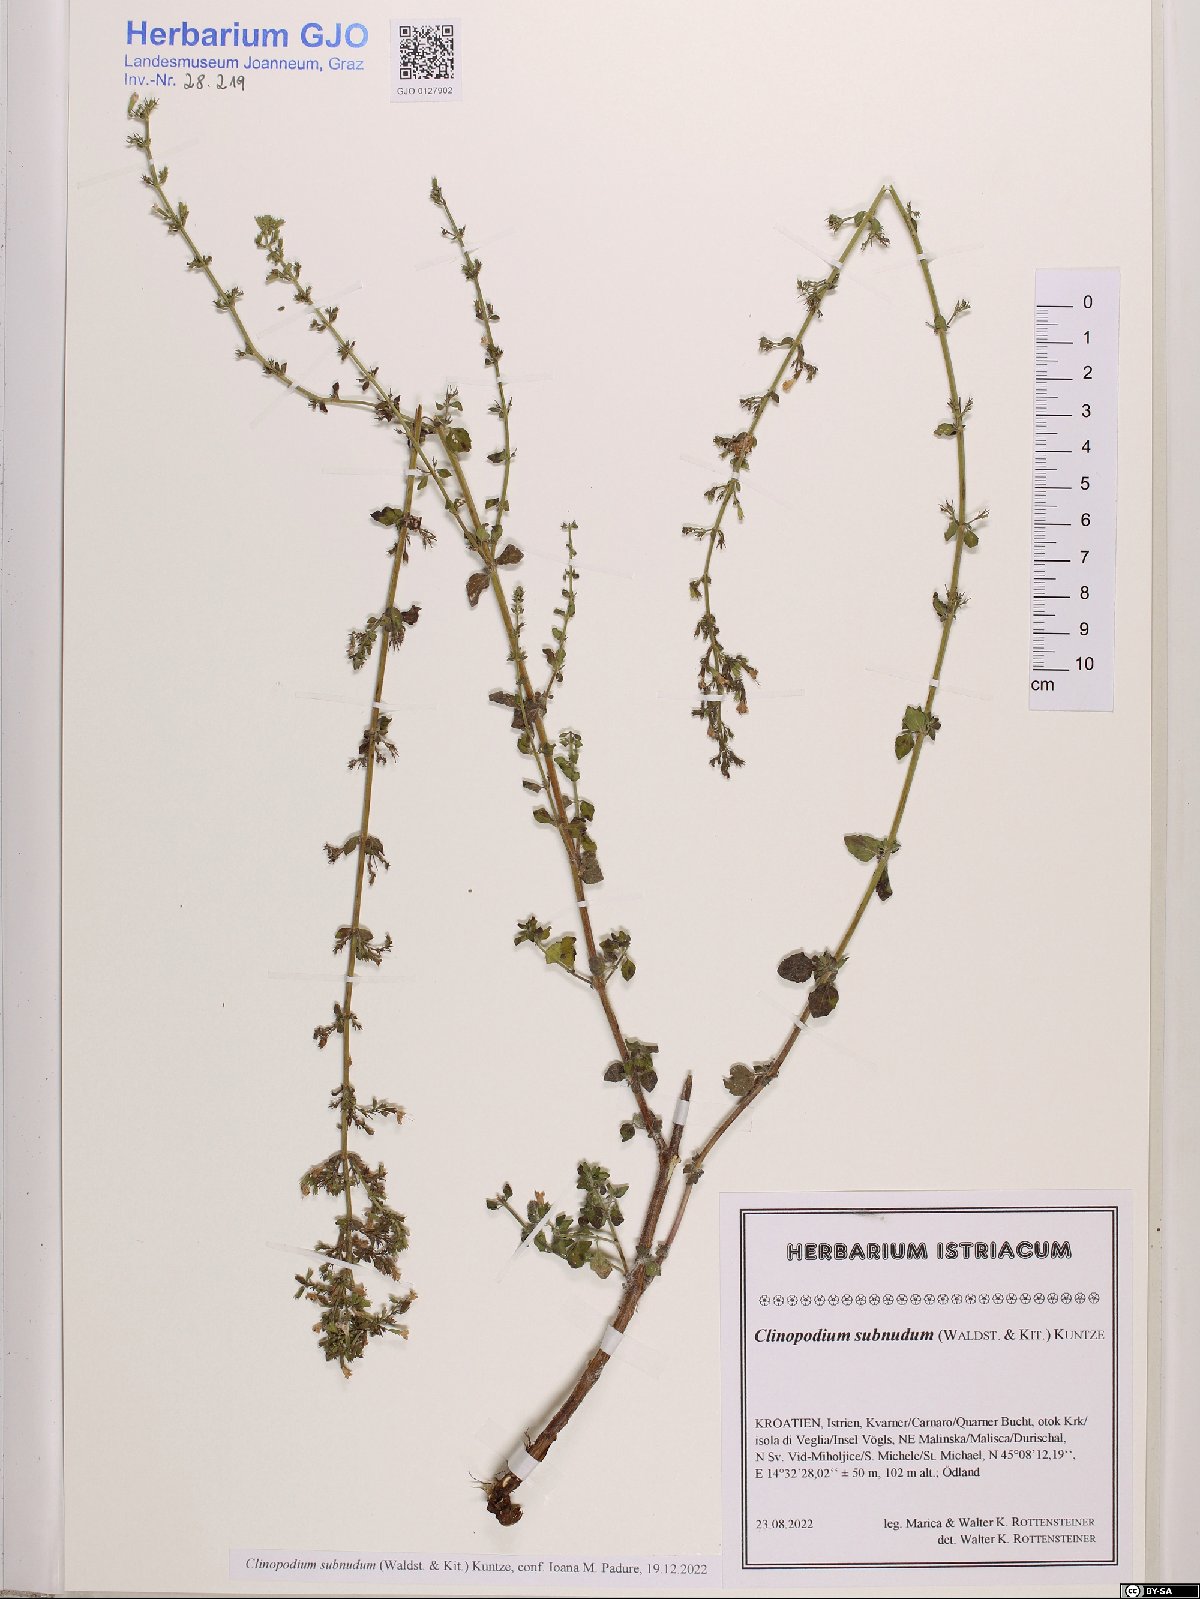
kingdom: Plantae
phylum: Tracheophyta
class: Magnoliopsida
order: Lamiales
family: Lamiaceae
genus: Clinopodium
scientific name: Clinopodium nepeta
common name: Lesser calamint
